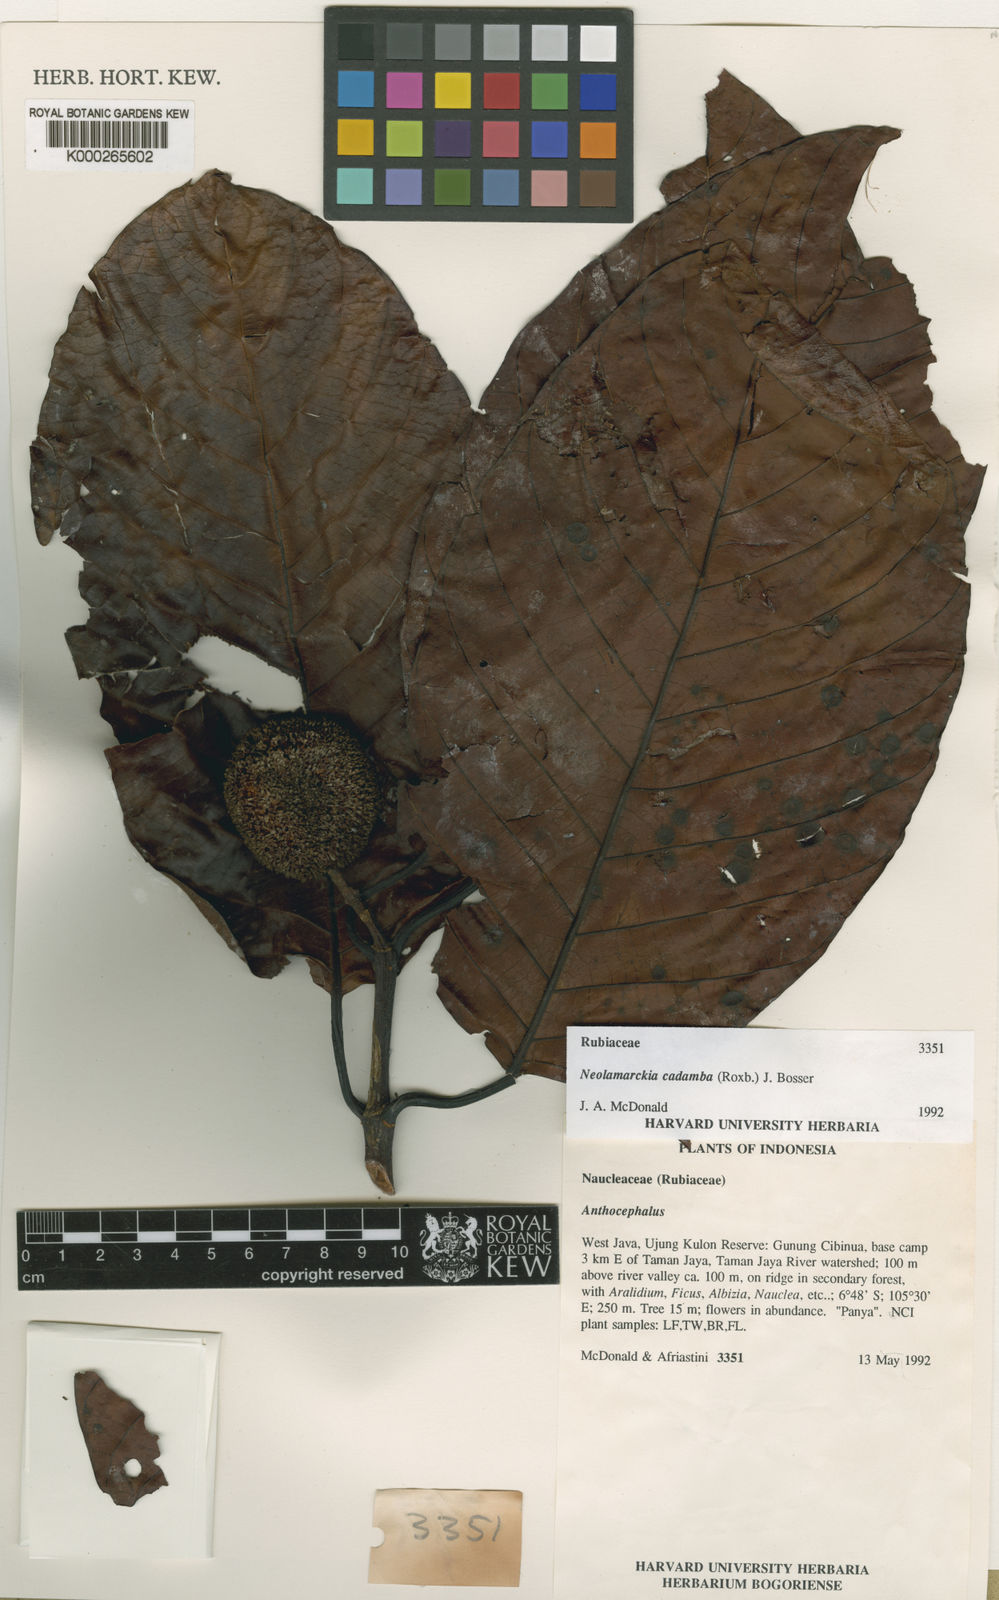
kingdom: Plantae
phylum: Tracheophyta
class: Magnoliopsida
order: Gentianales
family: Rubiaceae
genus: Neolamarckia
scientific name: Neolamarckia cadamba
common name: Leichhardt-pine
